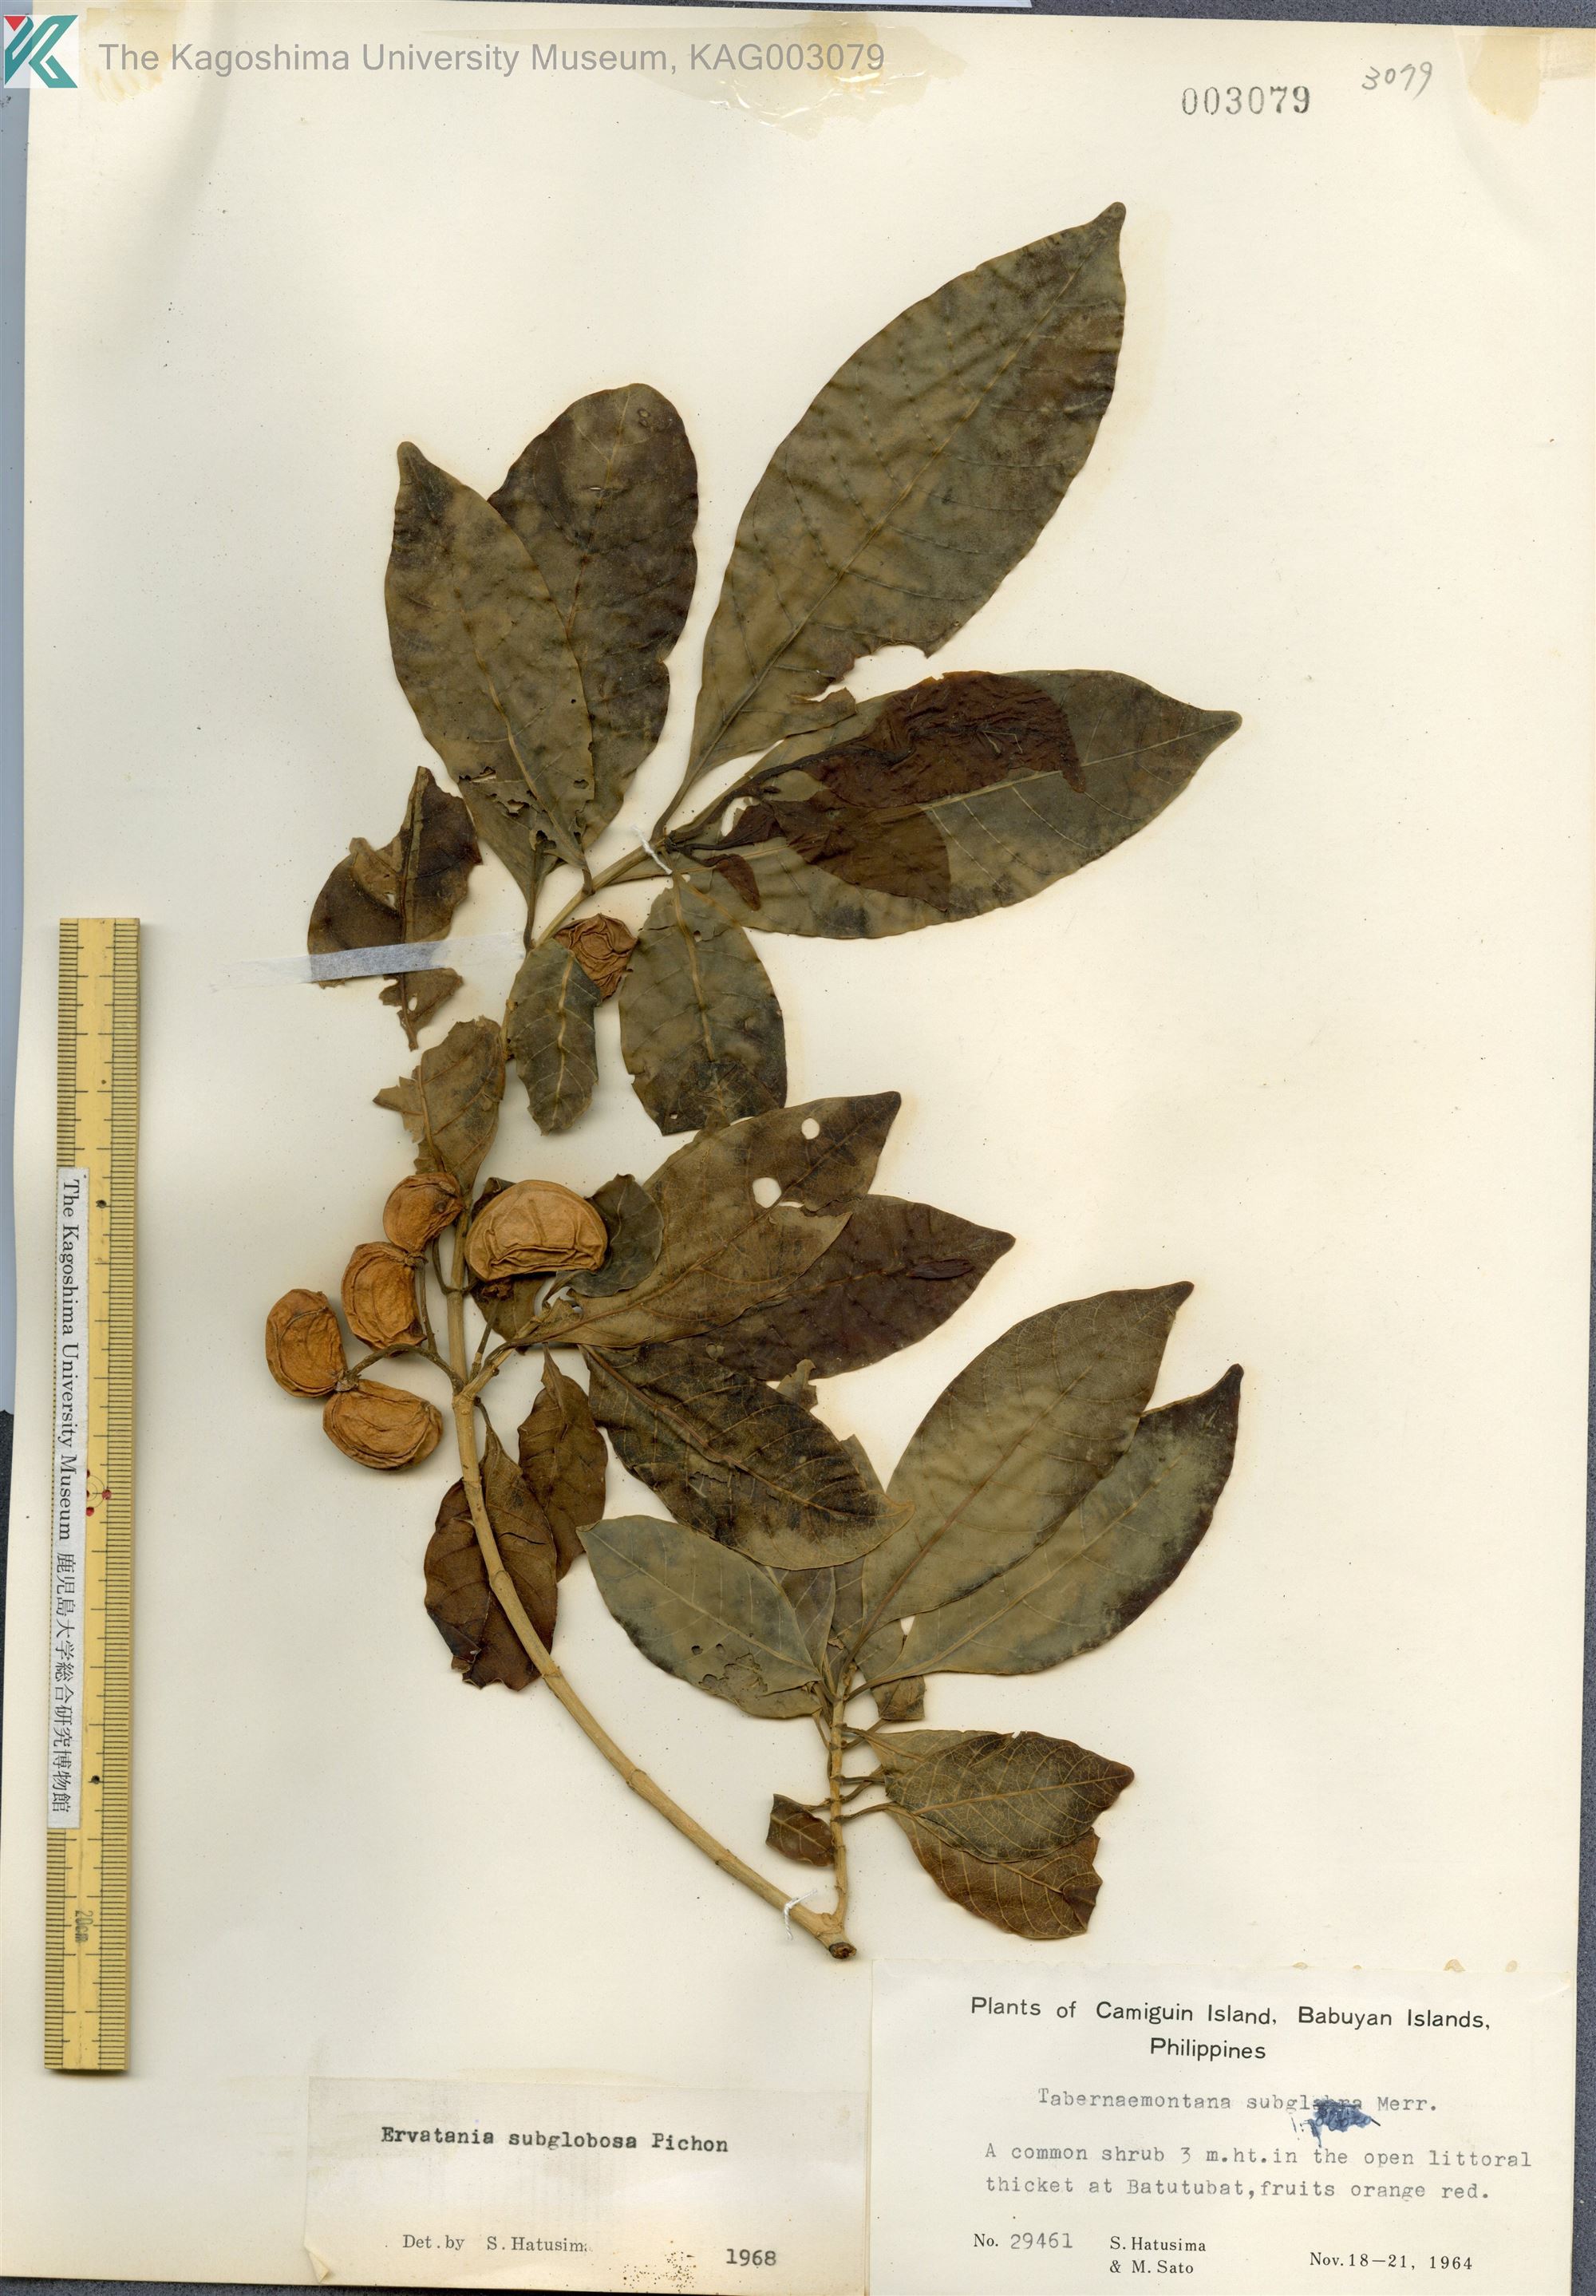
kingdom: Plantae
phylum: Tracheophyta
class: Magnoliopsida
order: Gentianales
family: Apocynaceae
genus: Tabernaemontana
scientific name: Tabernaemontana pandacaqui
